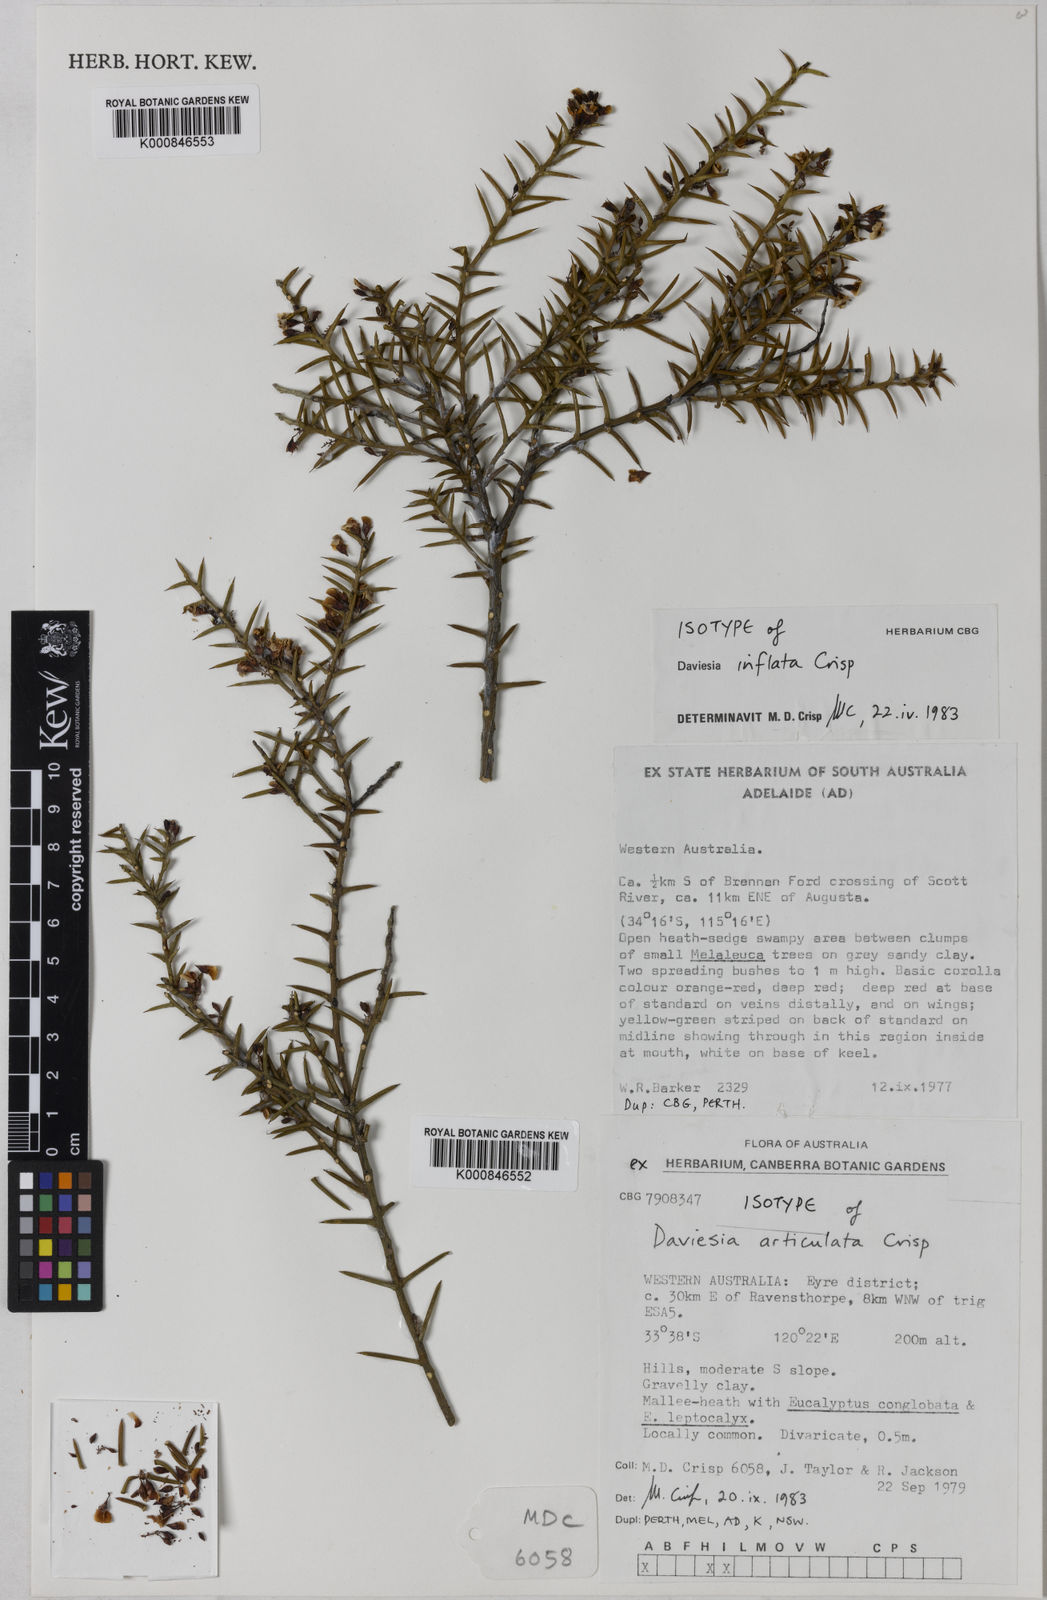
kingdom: Plantae
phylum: Tracheophyta
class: Magnoliopsida
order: Fabales
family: Fabaceae
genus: Daviesia
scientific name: Daviesia inflata
